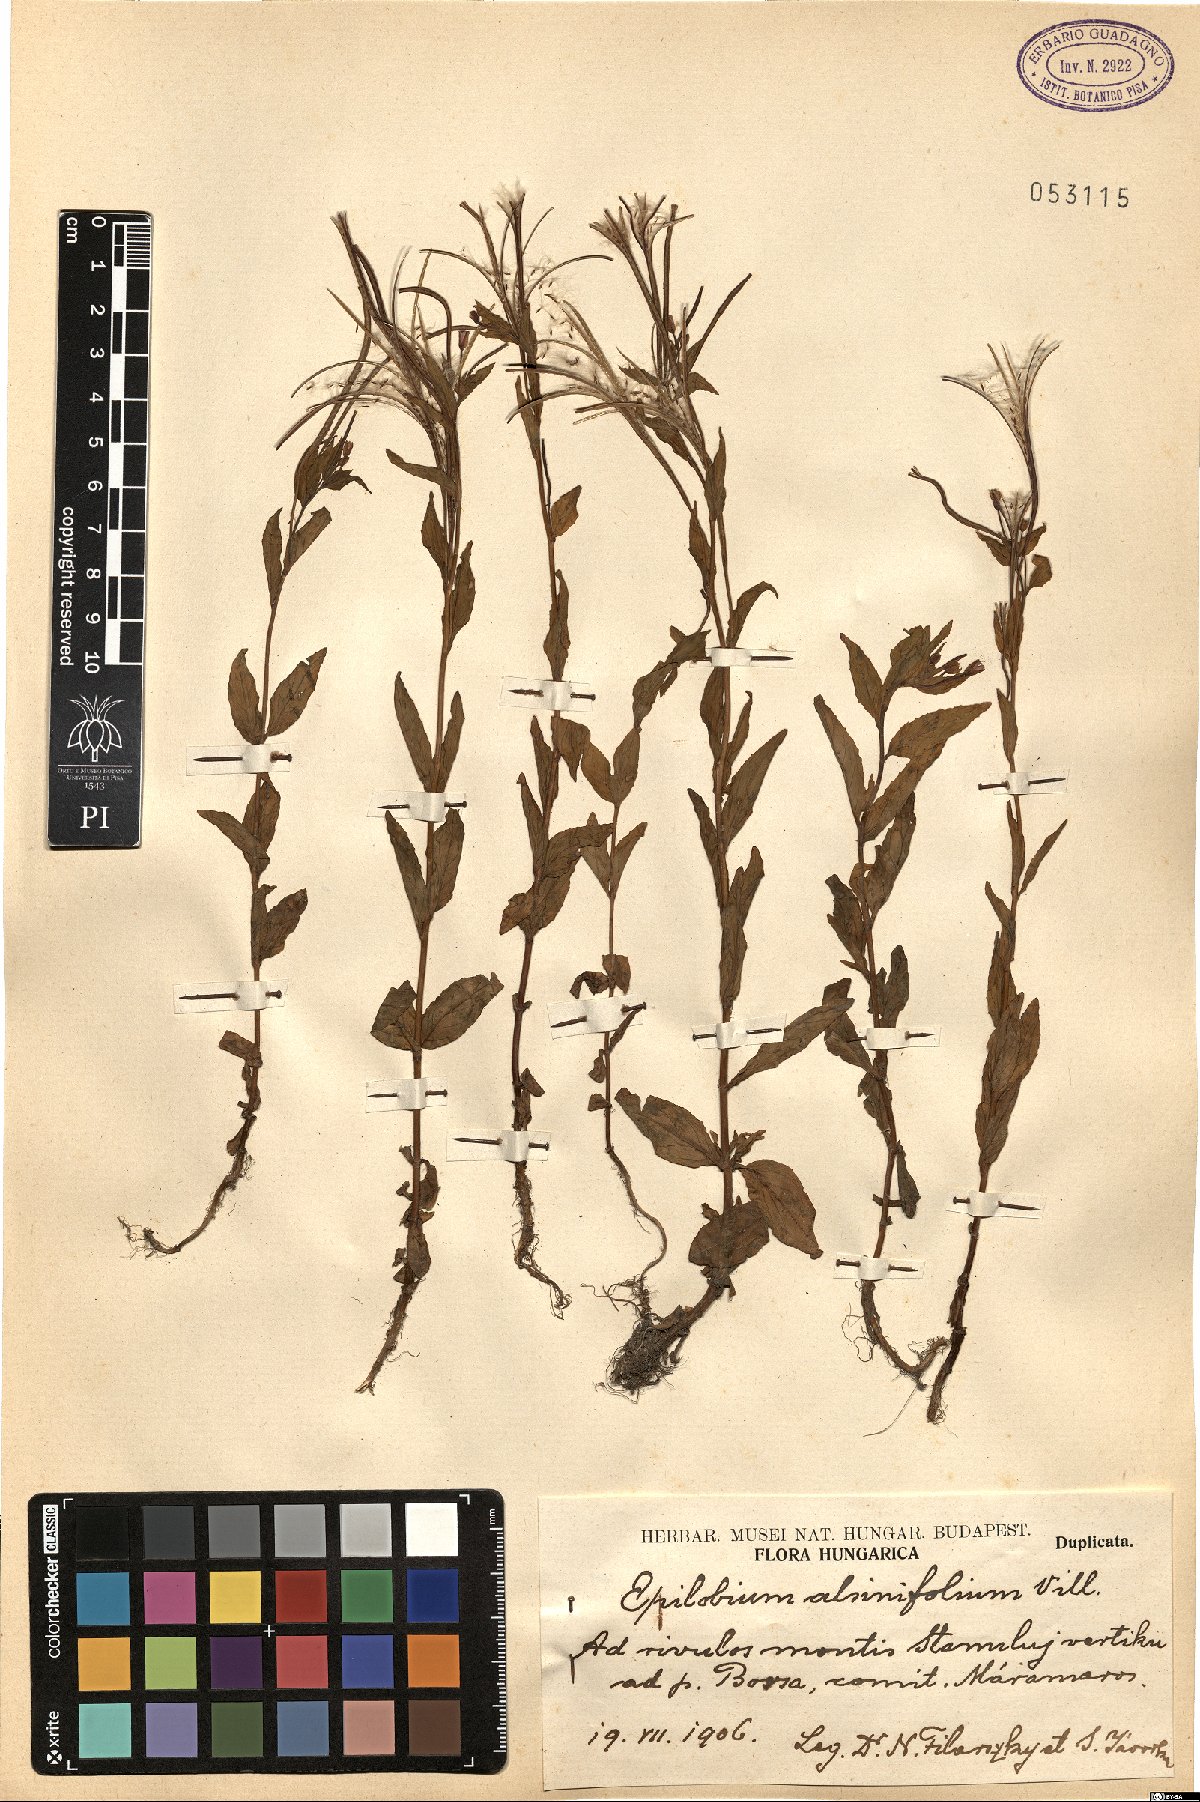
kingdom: Plantae
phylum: Tracheophyta
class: Magnoliopsida
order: Myrtales
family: Onagraceae
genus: Epilobium
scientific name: Epilobium alsinifolium
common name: Chickweed willowherb
